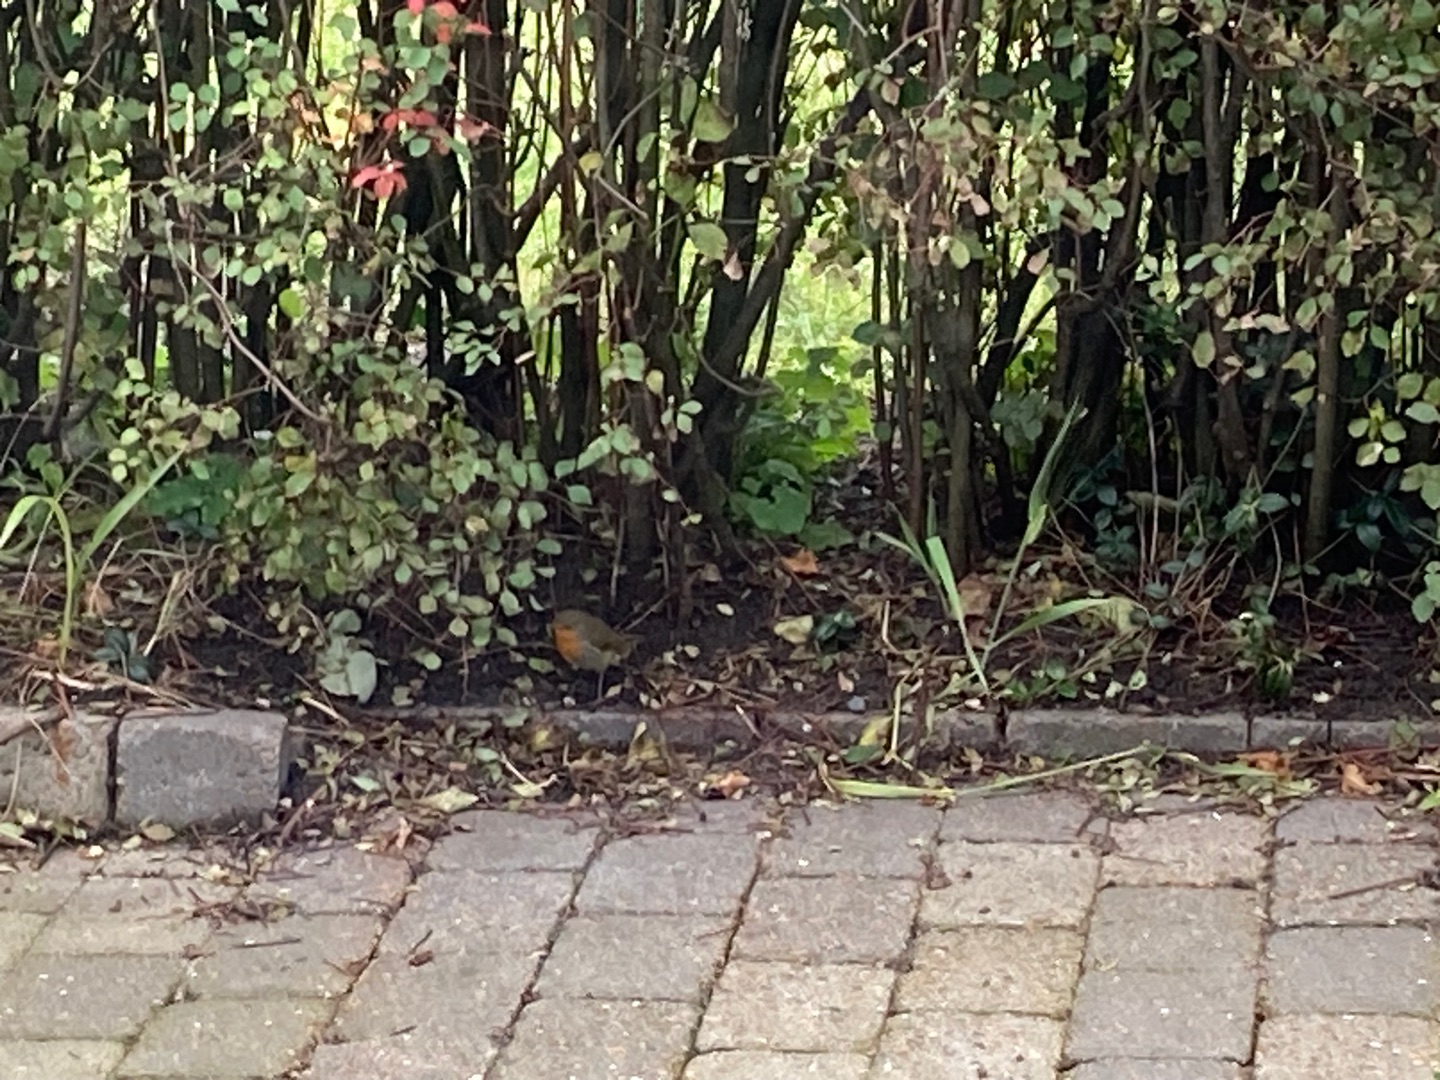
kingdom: Animalia
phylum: Chordata
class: Aves
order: Passeriformes
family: Muscicapidae
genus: Erithacus
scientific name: Erithacus rubecula
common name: Rødhals/rødkælk
